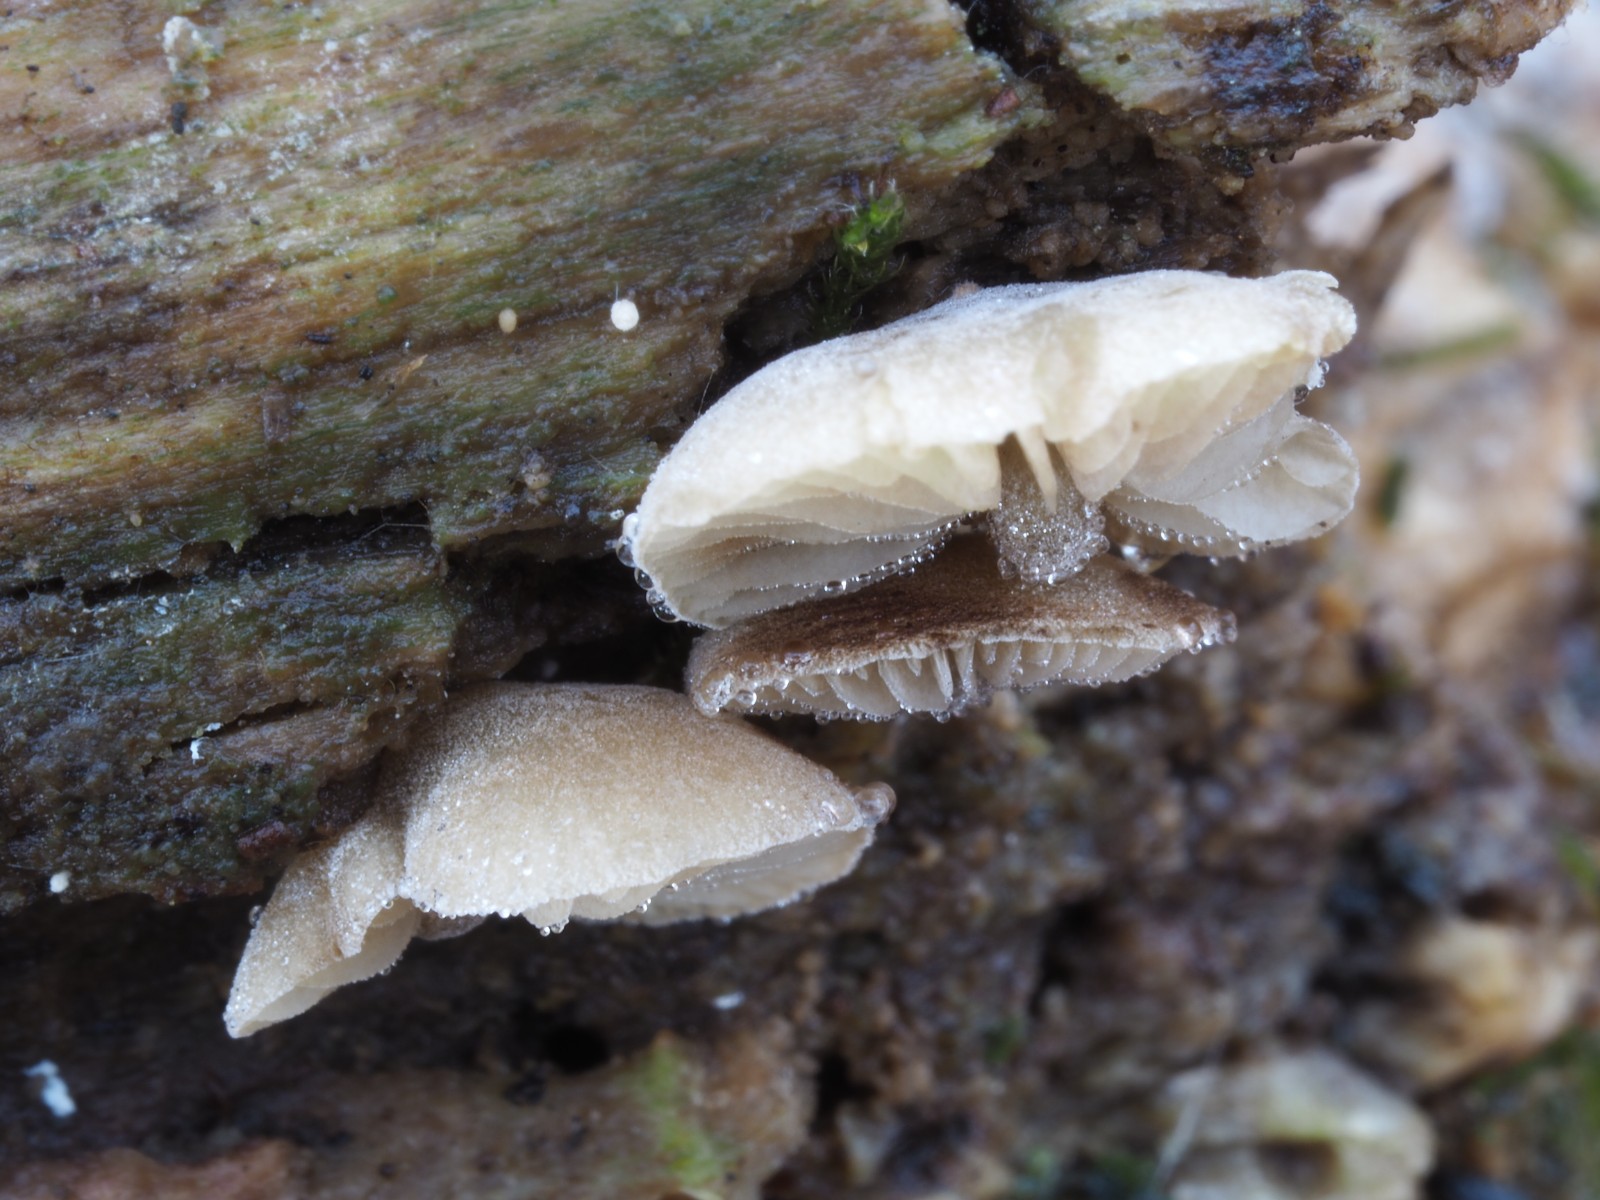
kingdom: Fungi
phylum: Basidiomycota
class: Agaricomycetes
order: Agaricales
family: Crepidotaceae
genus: Simocybe
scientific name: Simocybe
